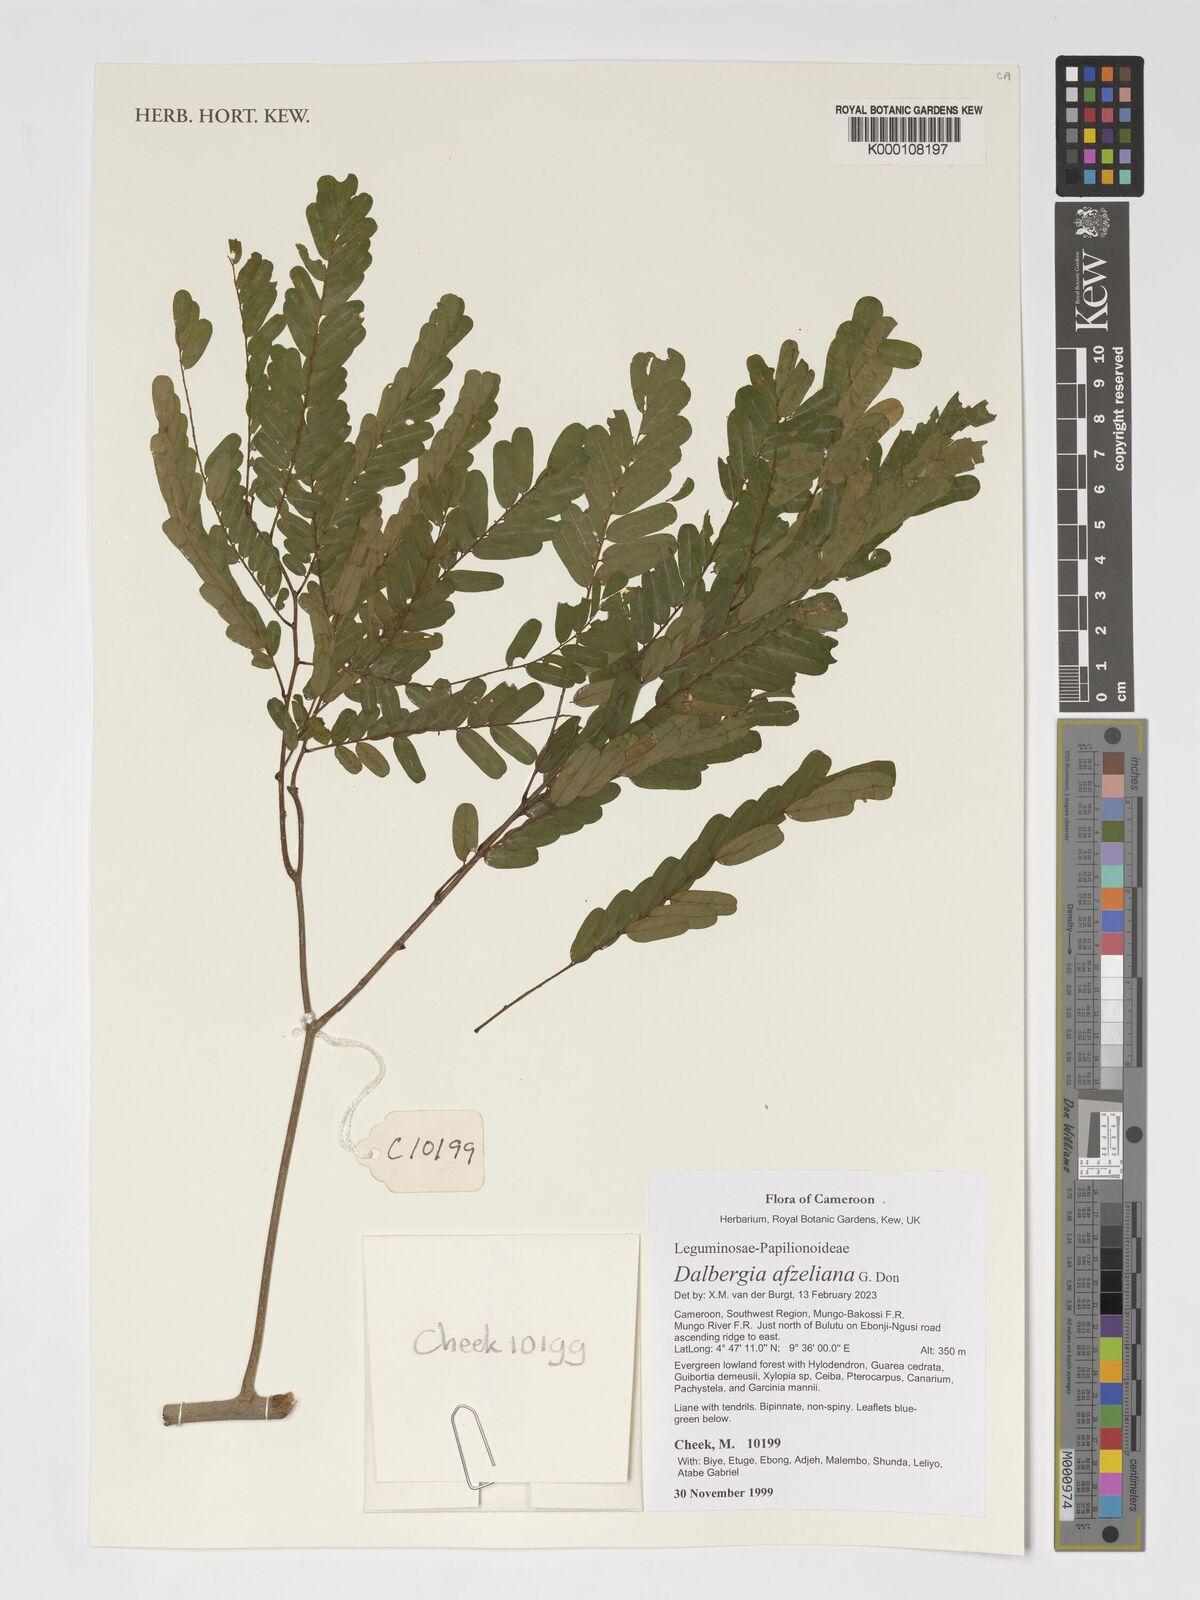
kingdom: Plantae
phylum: Tracheophyta
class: Magnoliopsida
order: Fabales
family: Fabaceae
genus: Dalbergia
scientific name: Dalbergia afzeliana
